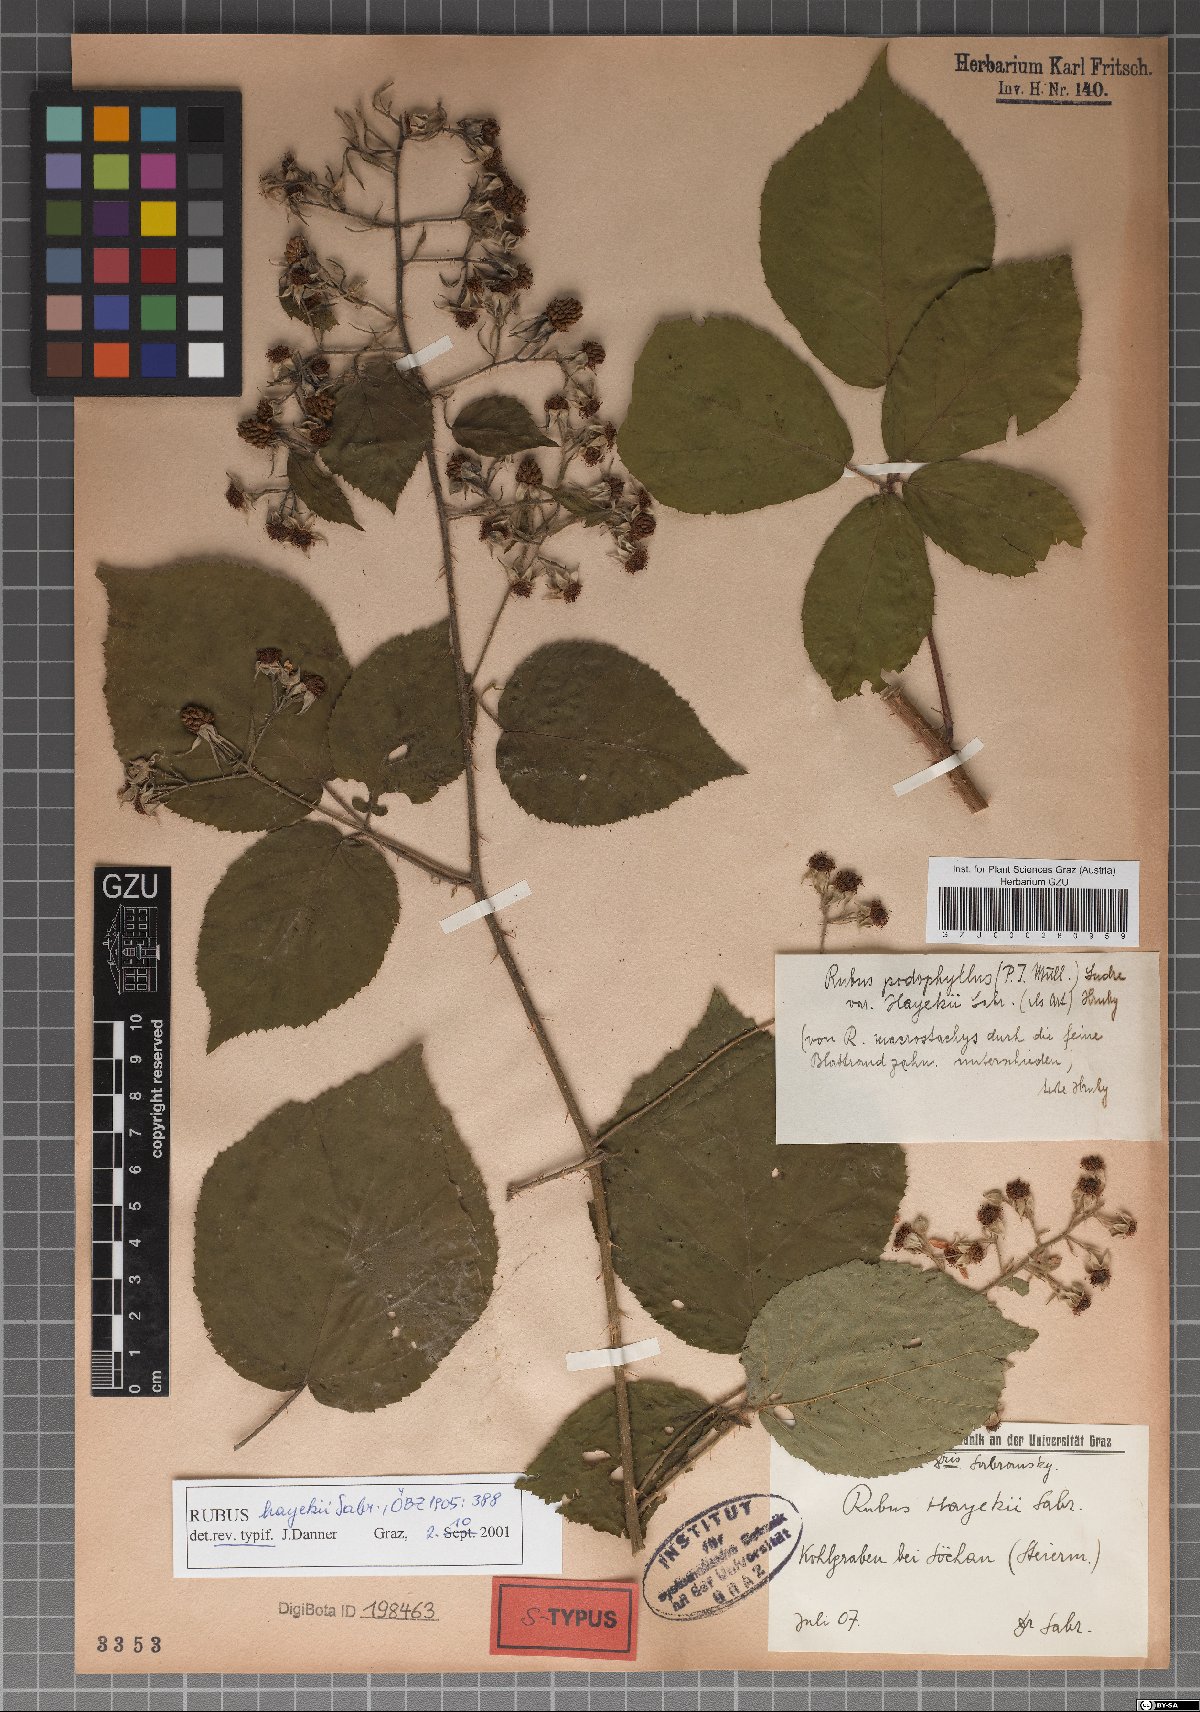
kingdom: Plantae
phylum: Tracheophyta
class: Magnoliopsida
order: Rosales
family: Rosaceae
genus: Rubus
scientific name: Rubus hayekii
